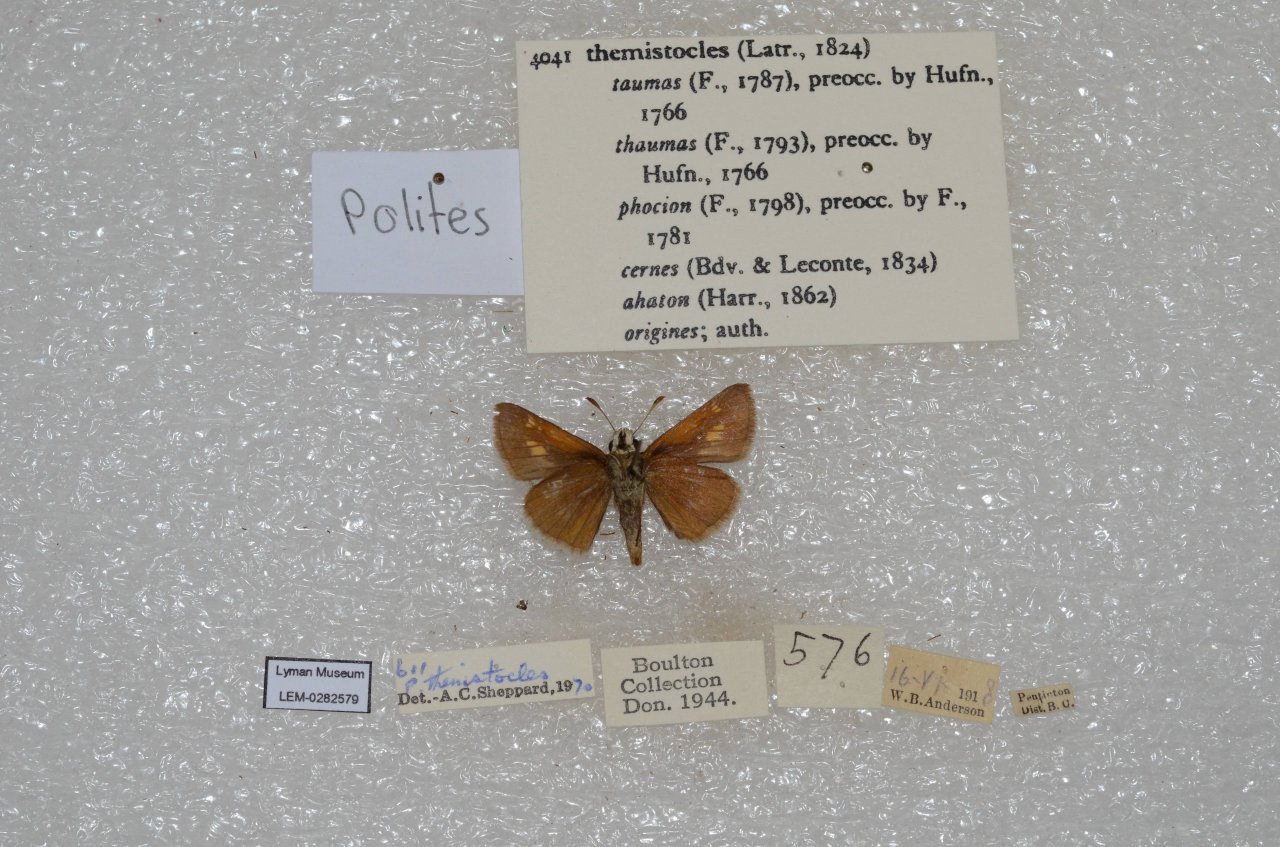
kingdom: Animalia
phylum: Arthropoda
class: Insecta
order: Lepidoptera
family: Hesperiidae
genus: Polites
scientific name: Polites themistocles
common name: Tawny-edged Skipper
